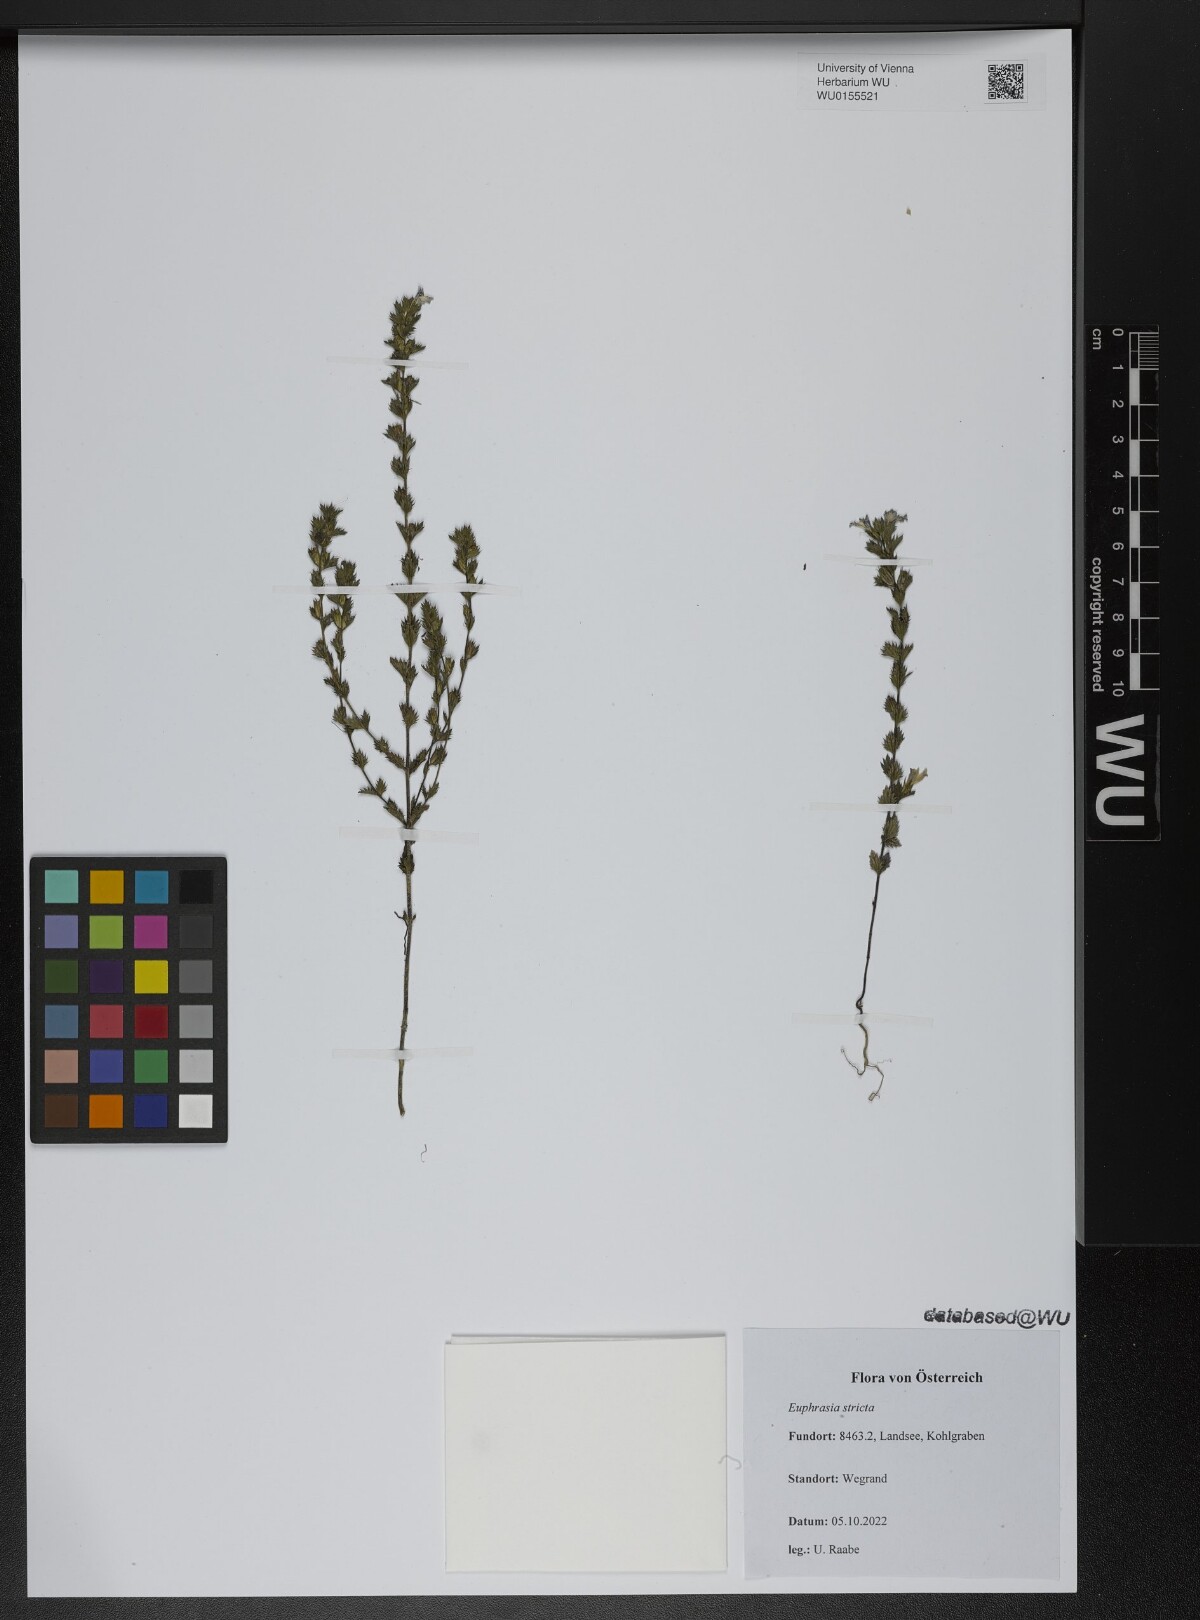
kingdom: Plantae
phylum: Tracheophyta
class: Magnoliopsida
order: Malpighiales
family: Euphorbiaceae
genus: Euphorbia
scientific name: Euphorbia stricta
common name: Upright spurge
